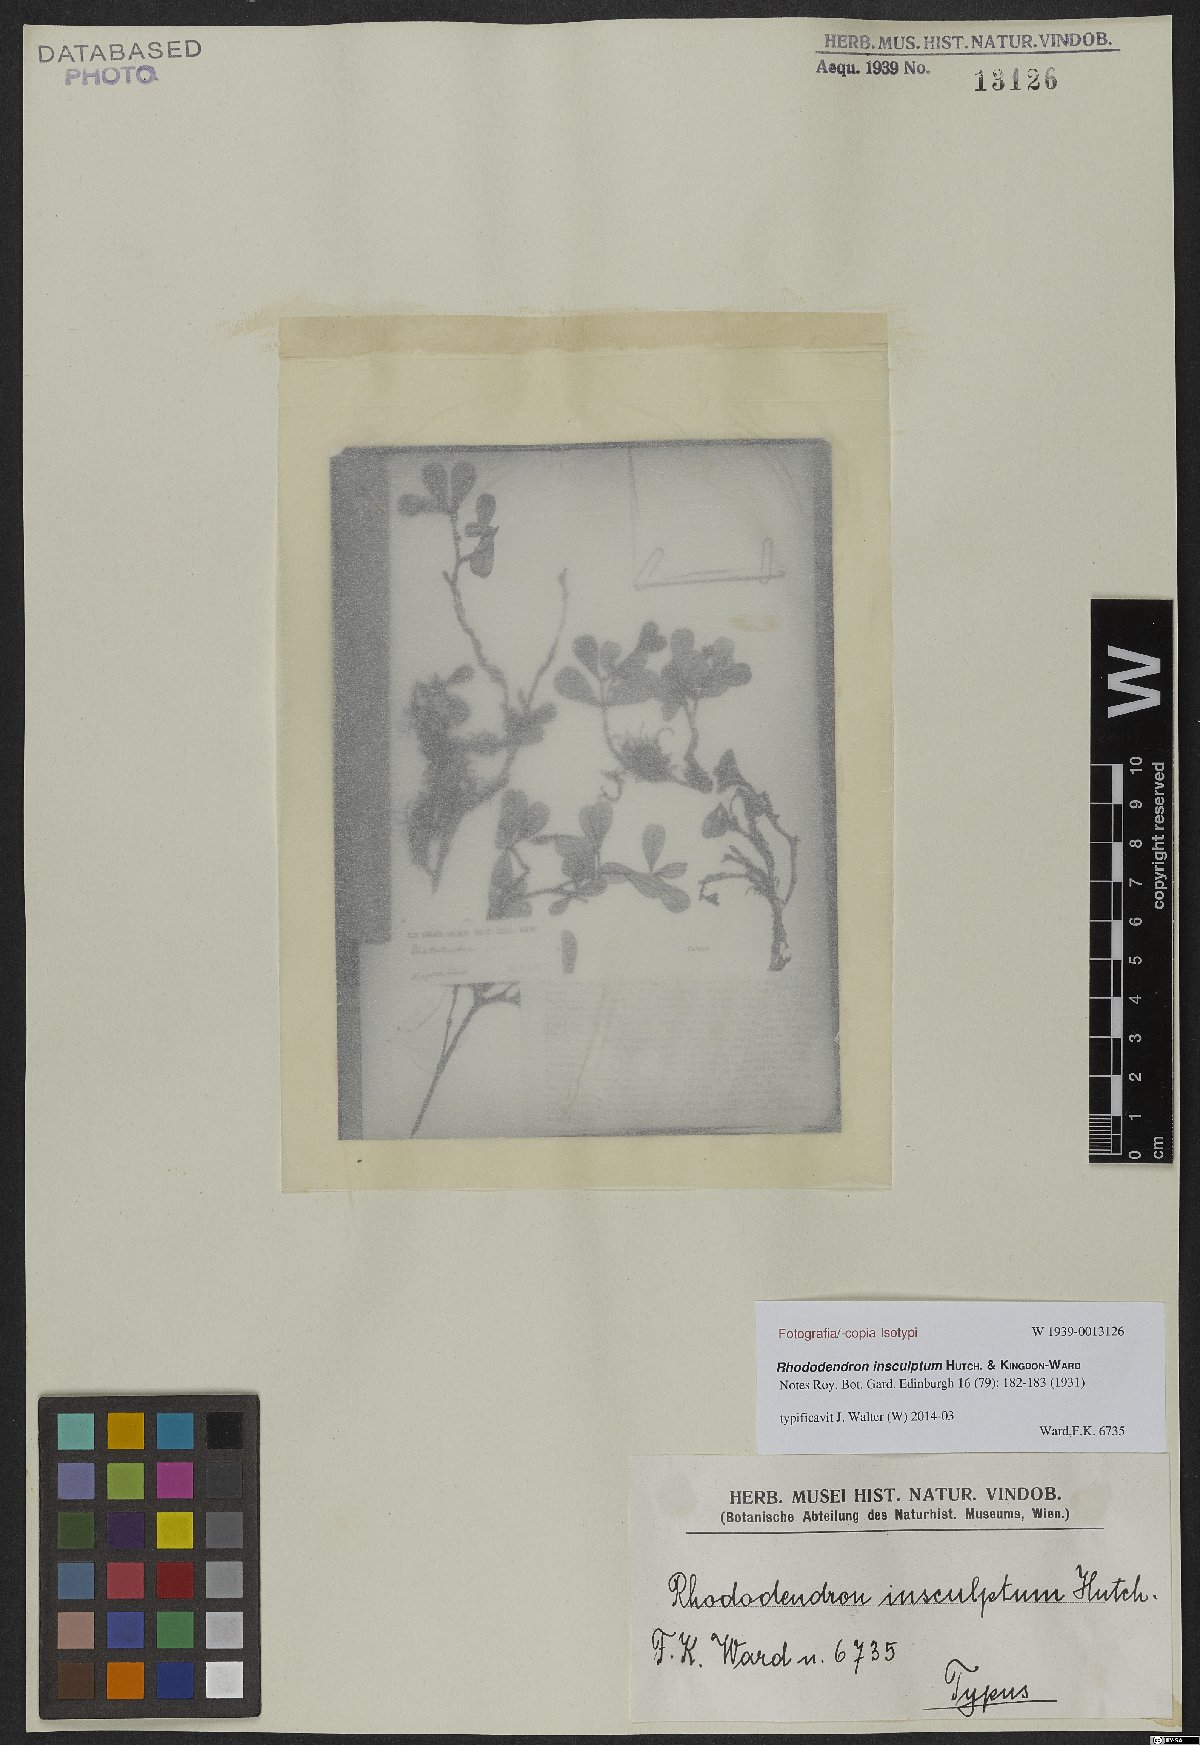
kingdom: Plantae
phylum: Tracheophyta
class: Magnoliopsida
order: Ericales
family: Ericaceae
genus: Rhododendron
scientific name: Rhododendron insculptum
